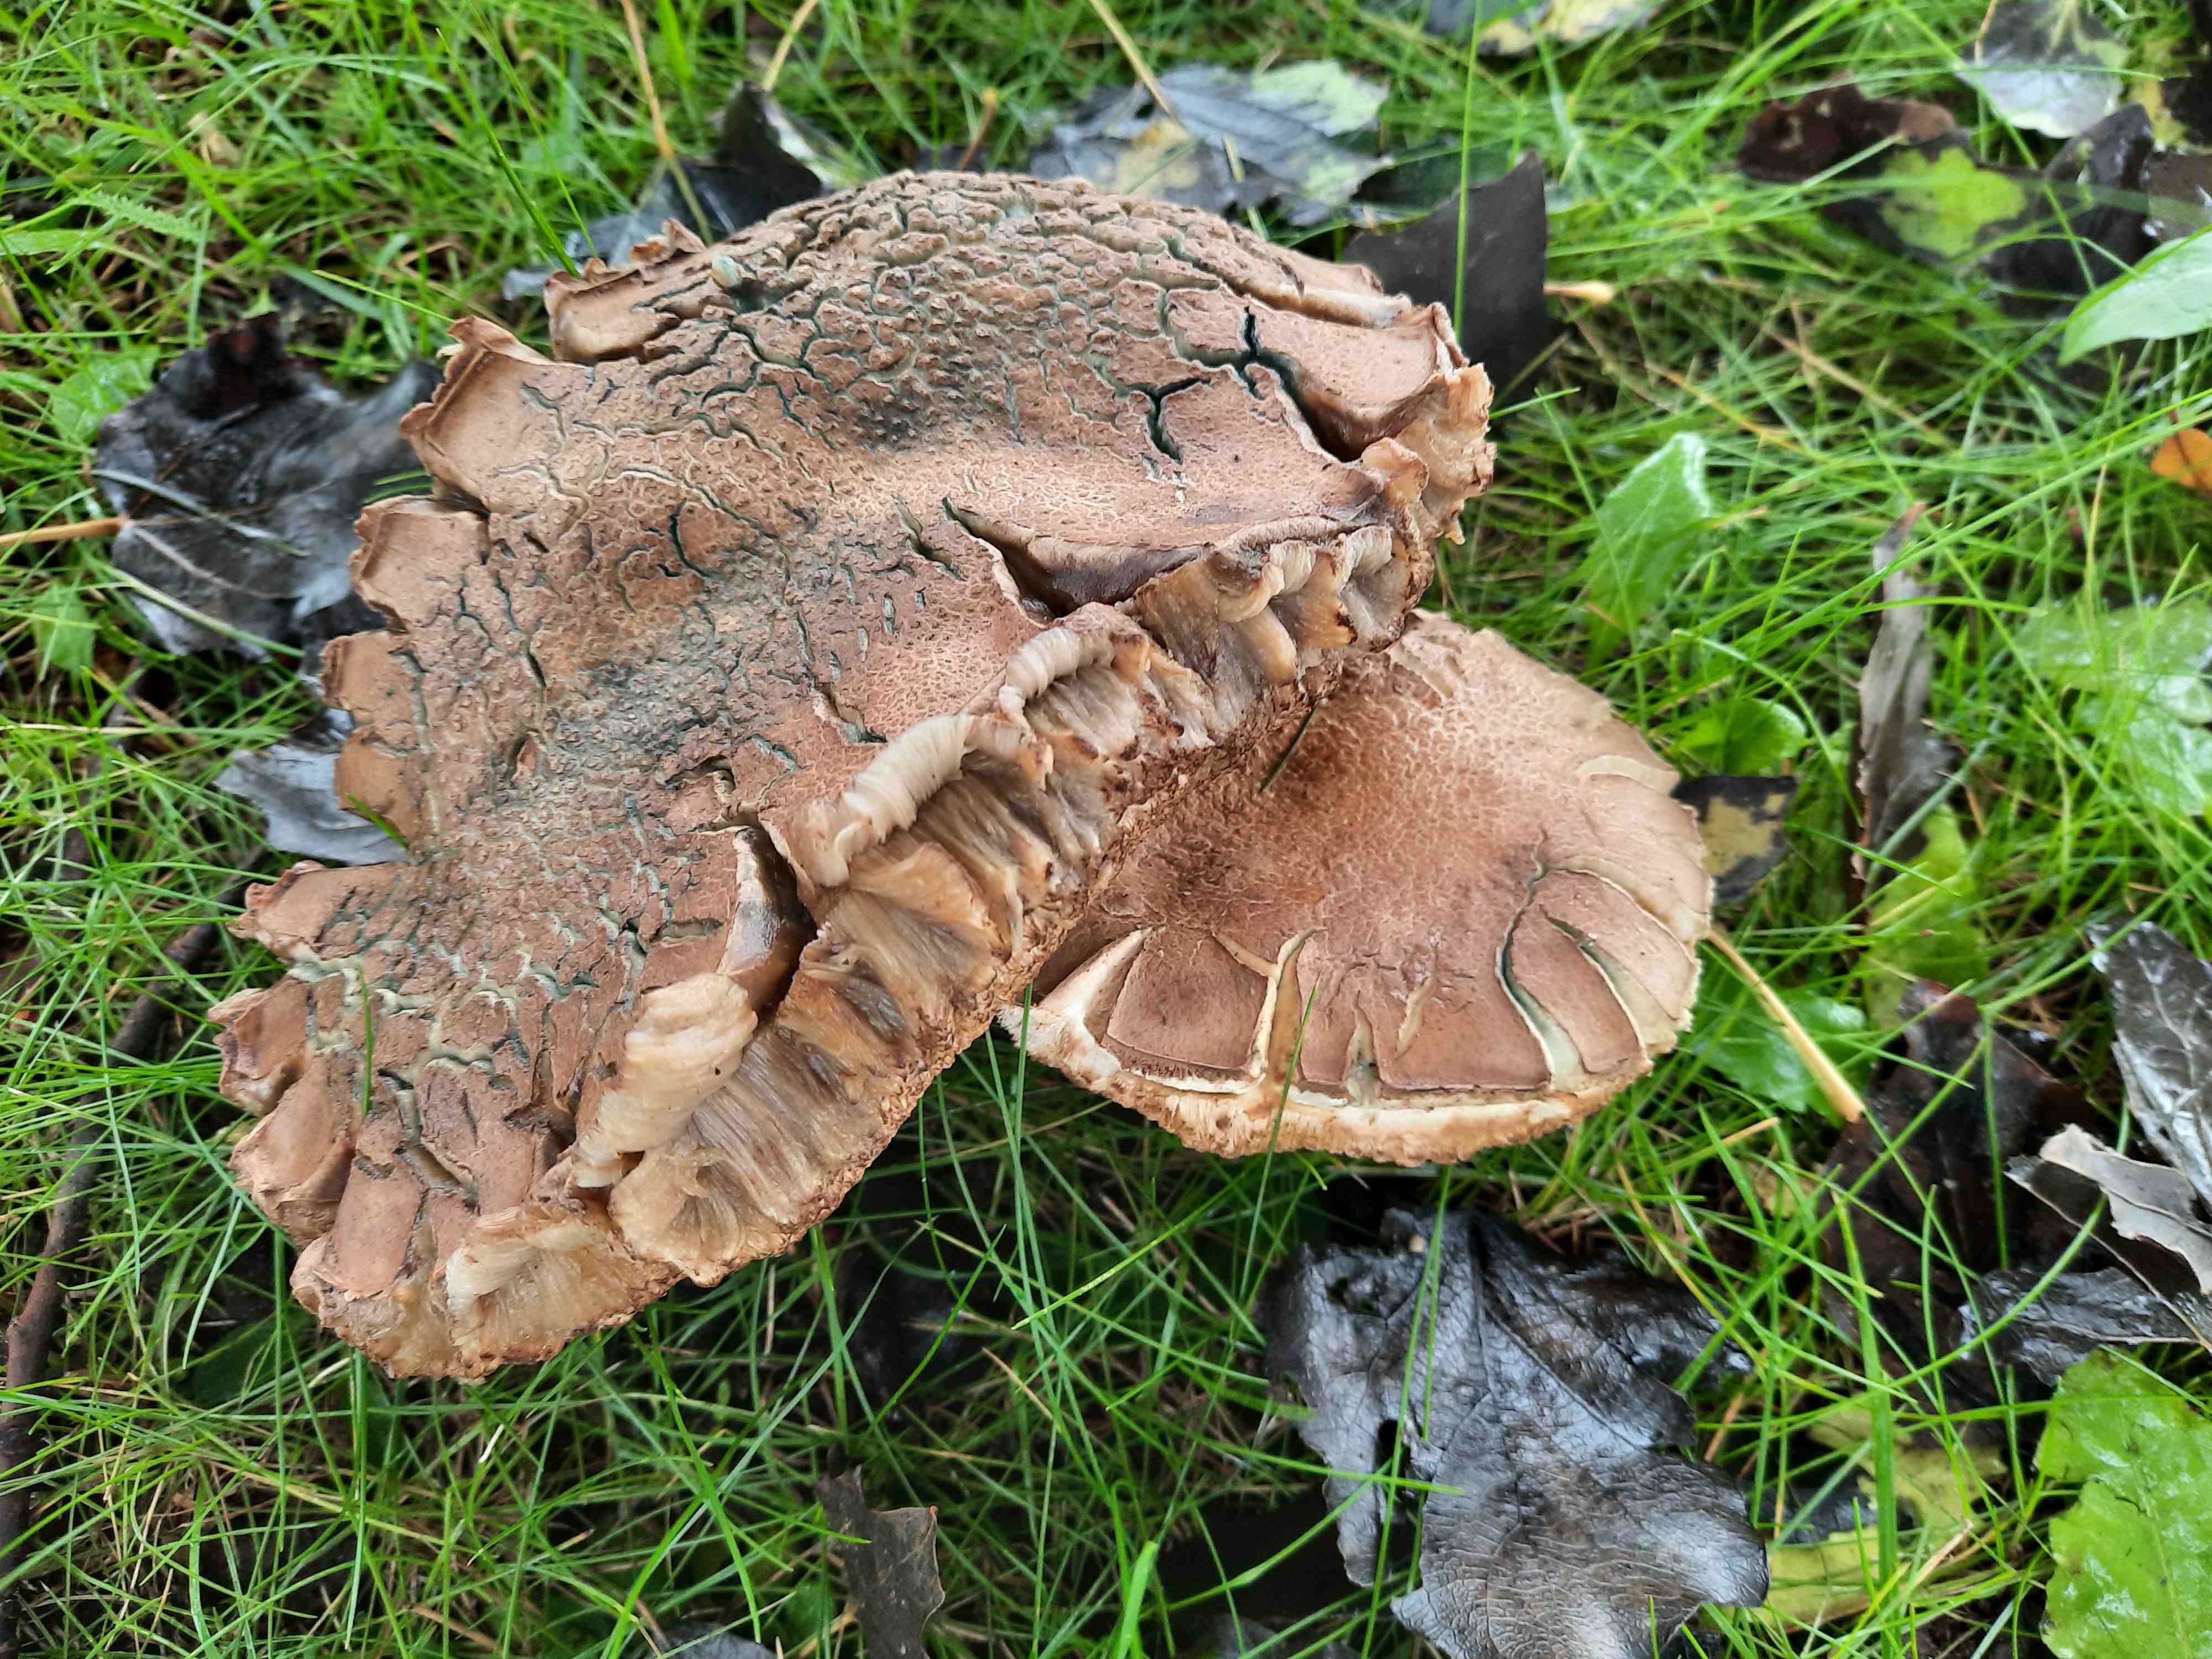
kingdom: Fungi
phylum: Basidiomycota
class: Agaricomycetes
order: Boletales
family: Boletaceae
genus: Leccinum
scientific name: Leccinum duriusculum
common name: poppel-skælrørhat
